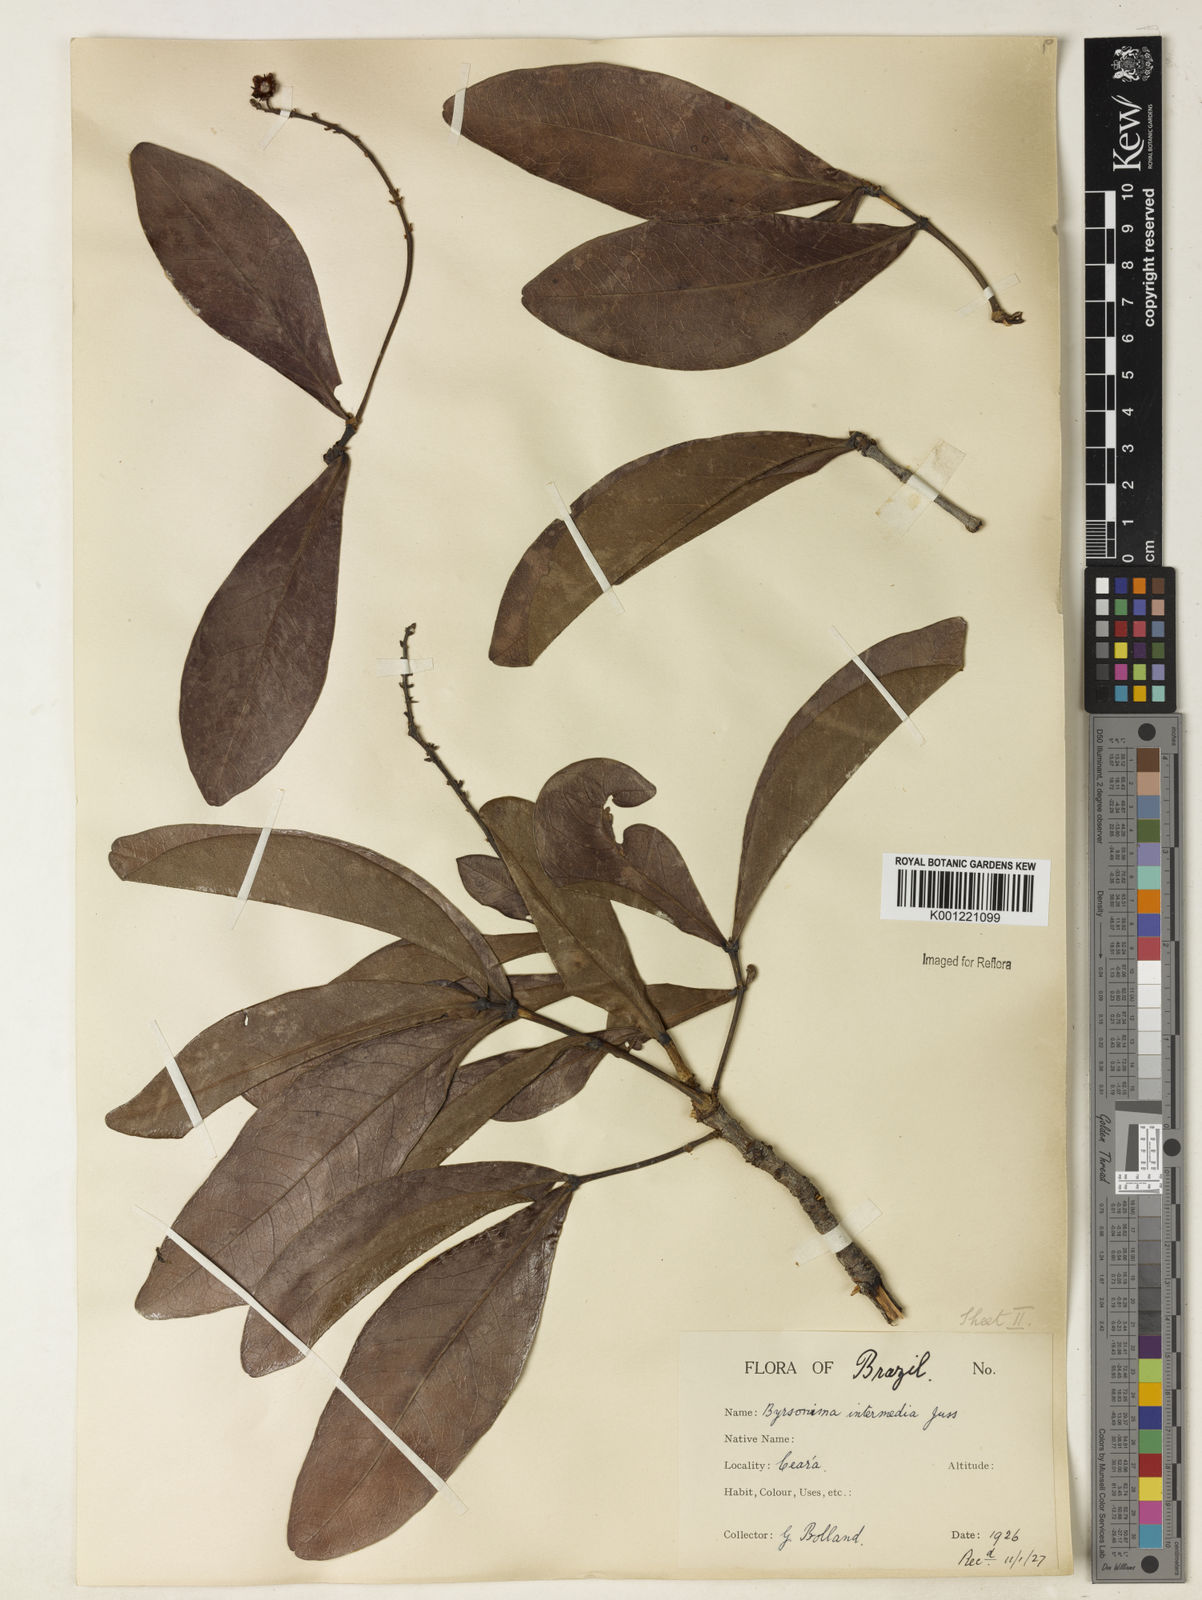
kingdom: Plantae
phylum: Tracheophyta
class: Magnoliopsida
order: Malpighiales
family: Malpighiaceae
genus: Byrsonima
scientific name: Byrsonima intermedia
